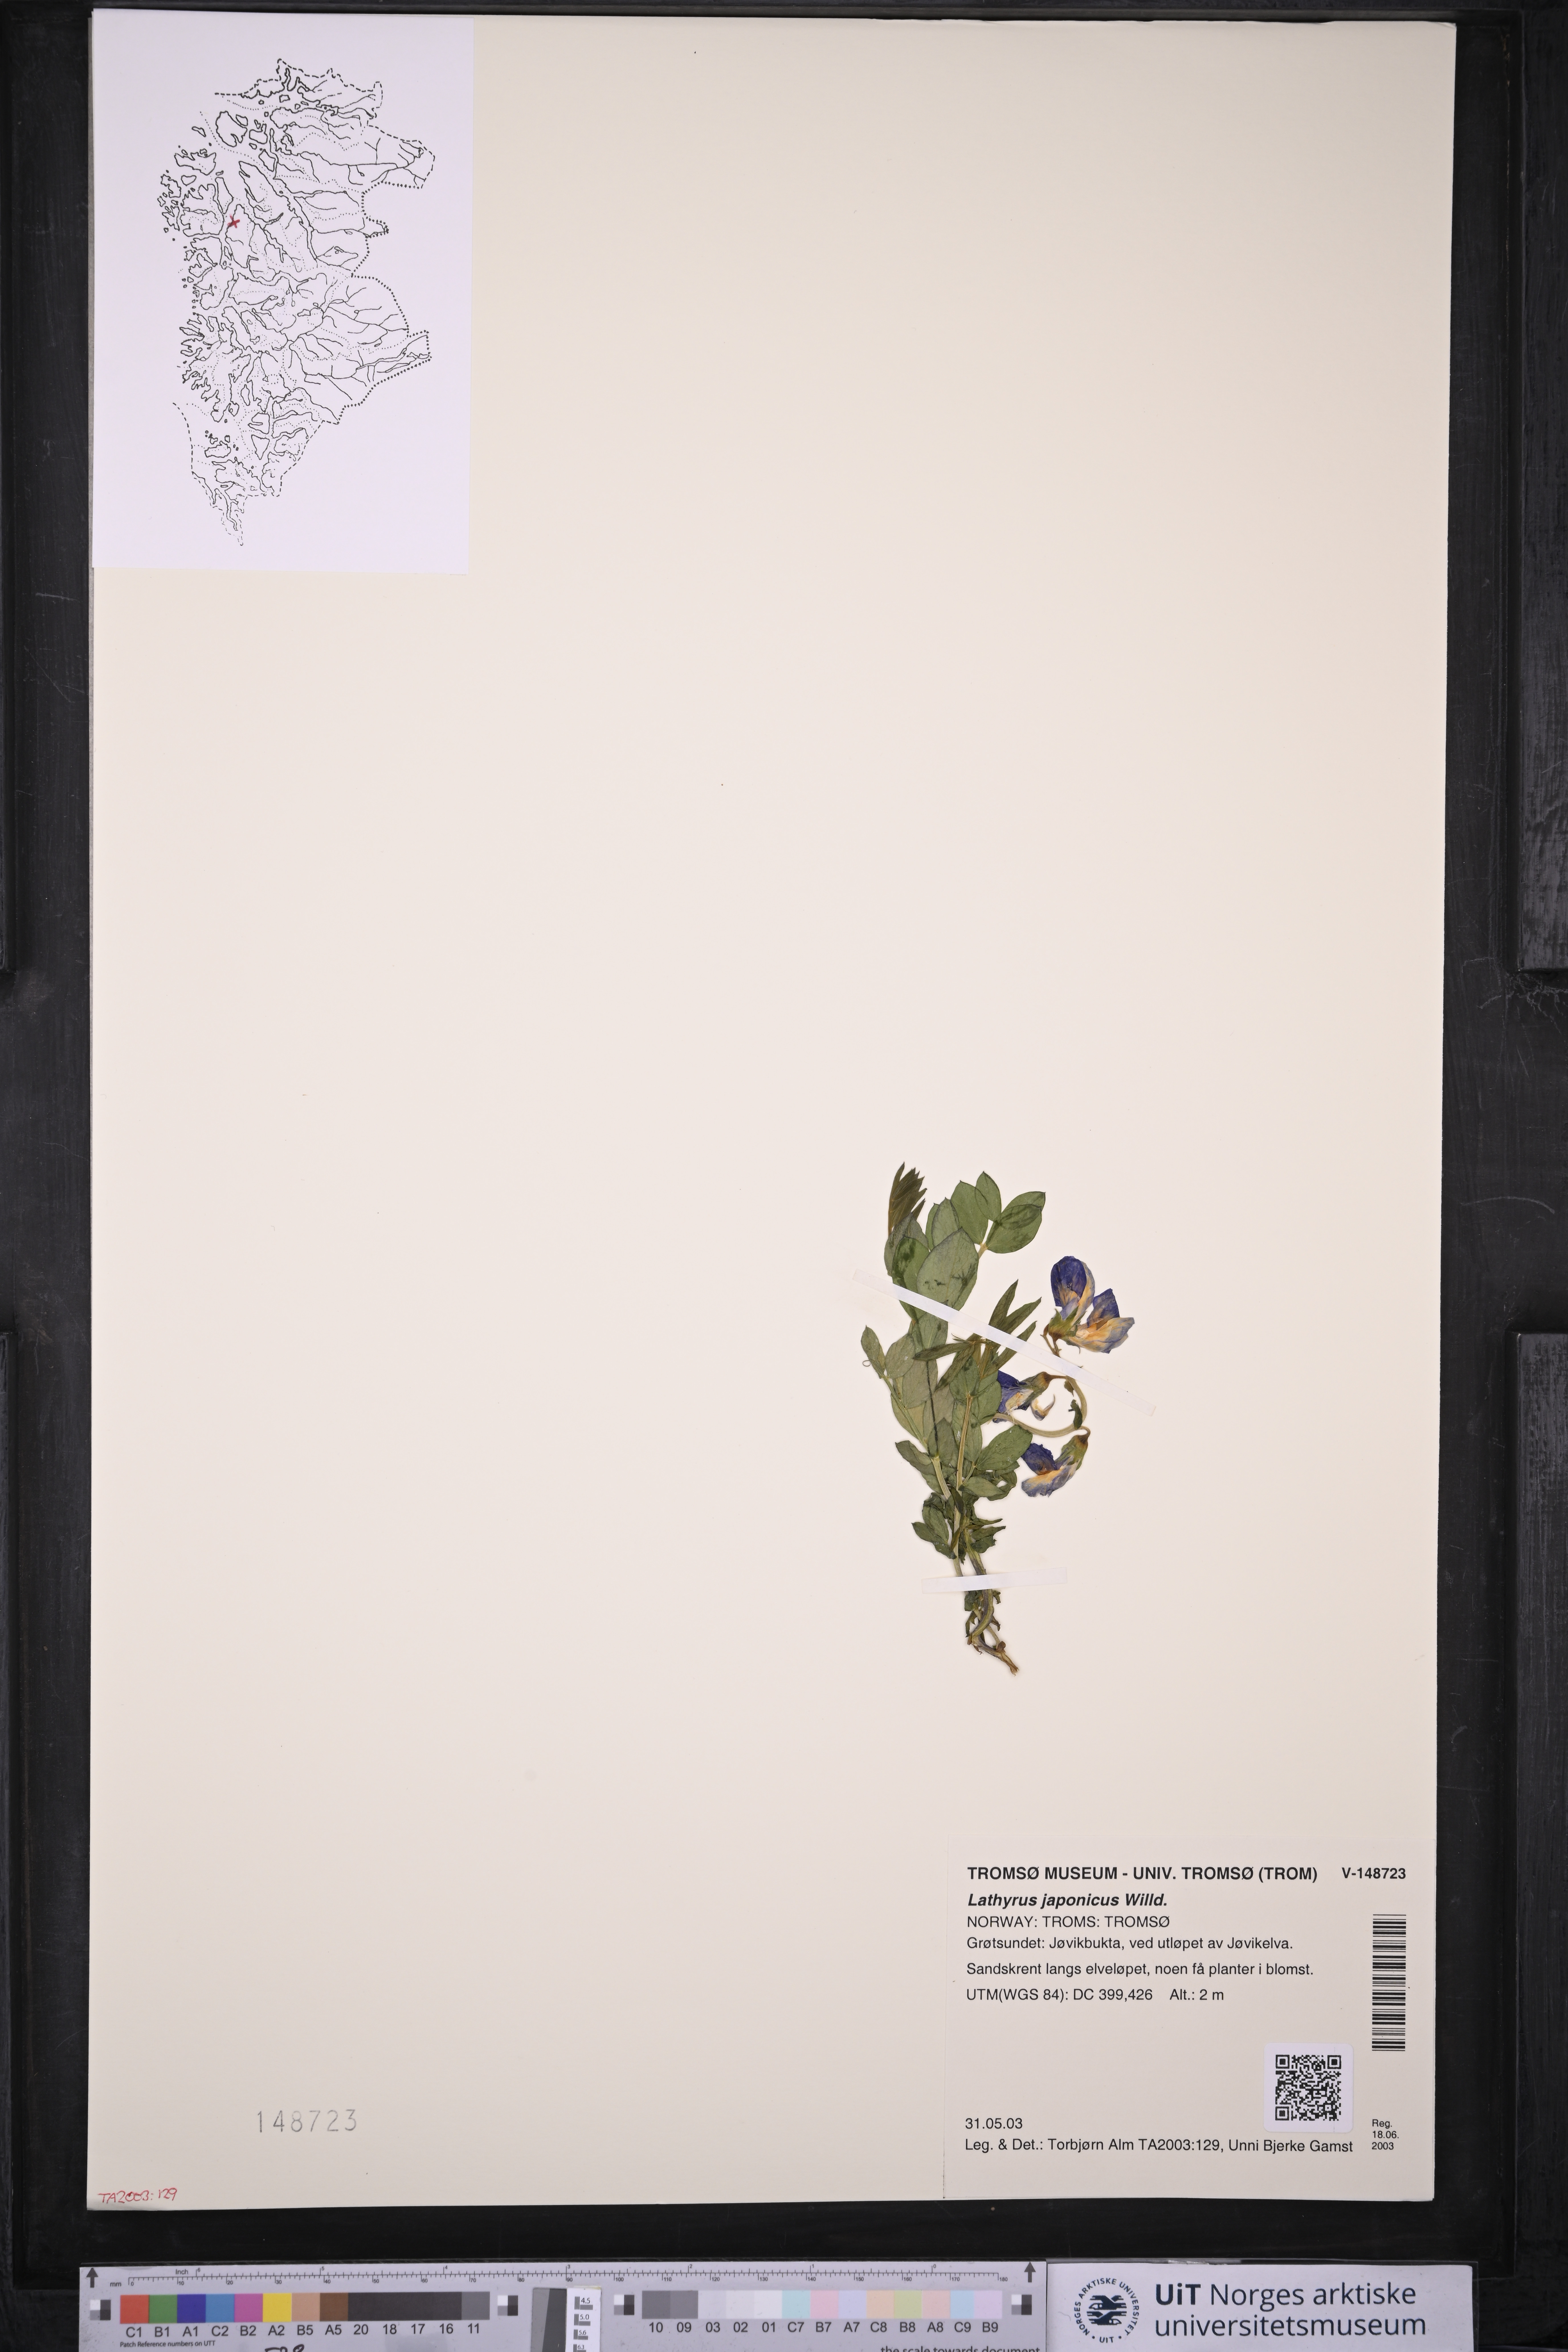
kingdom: Plantae
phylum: Tracheophyta
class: Magnoliopsida
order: Fabales
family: Fabaceae
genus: Lathyrus
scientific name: Lathyrus japonicus
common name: Sea pea
